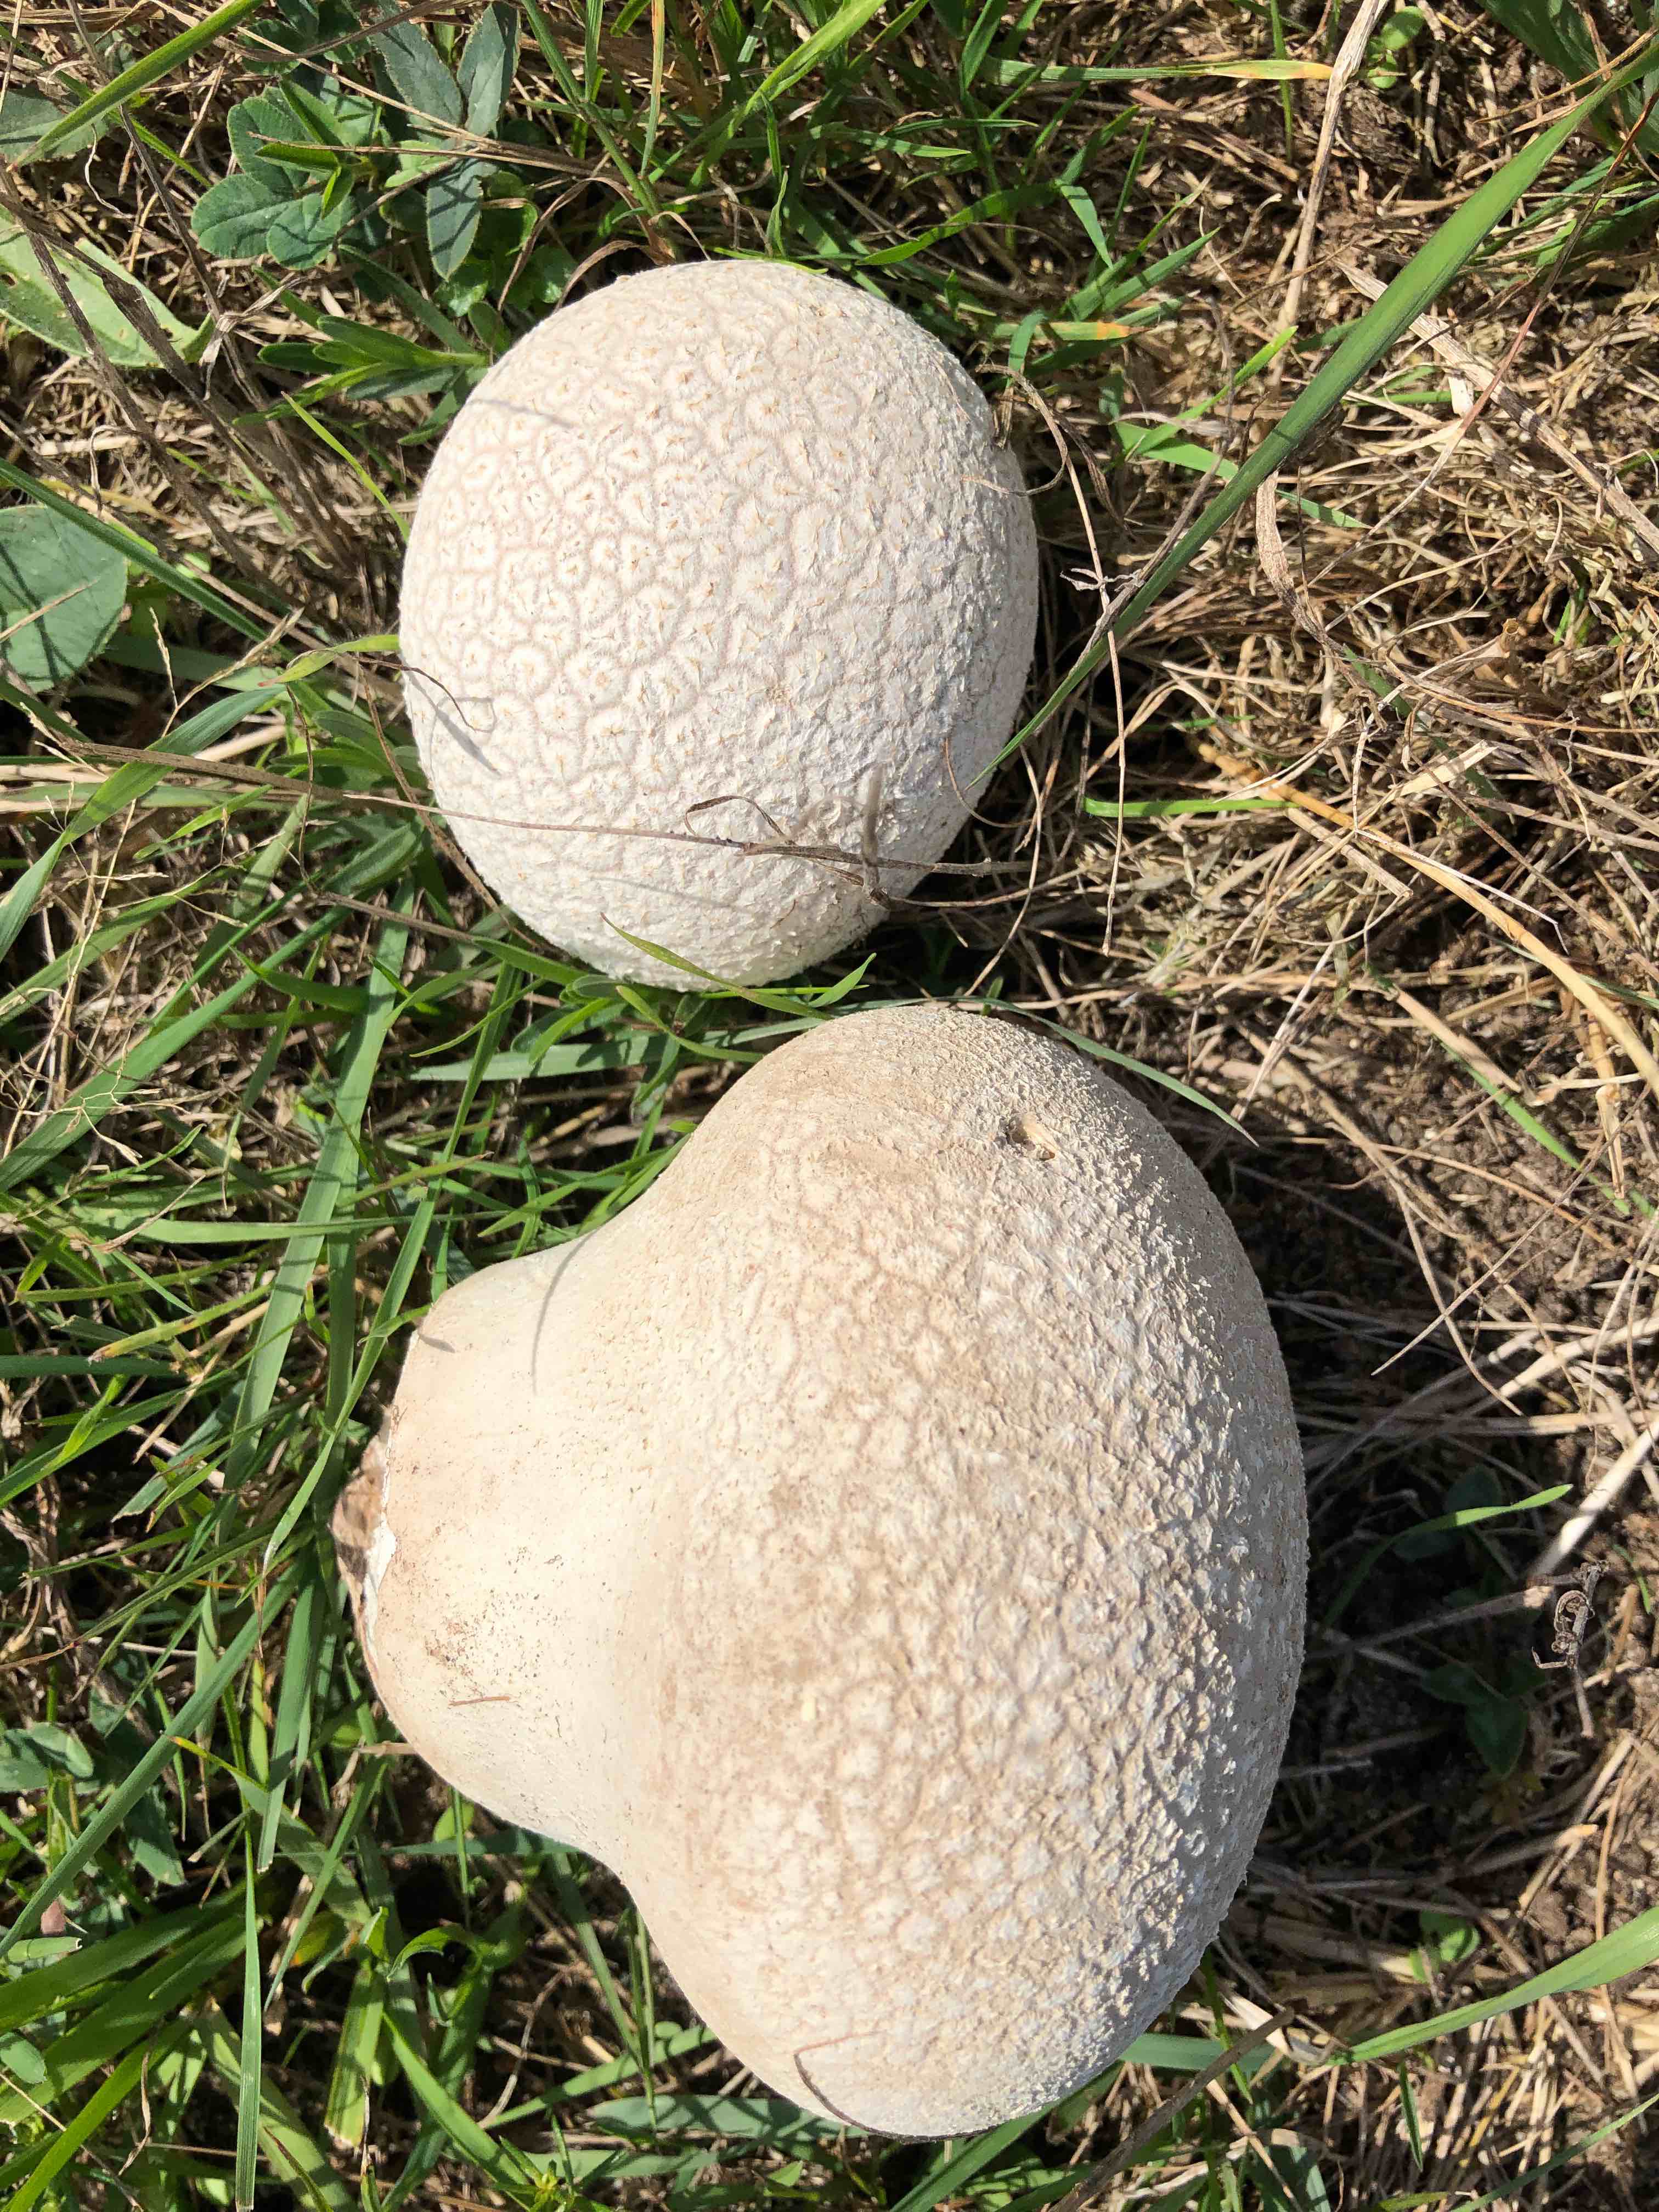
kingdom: Fungi
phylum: Basidiomycota
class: Agaricomycetes
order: Agaricales
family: Lycoperdaceae
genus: Bovistella
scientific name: Bovistella utriformis
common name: skællet støvbold
